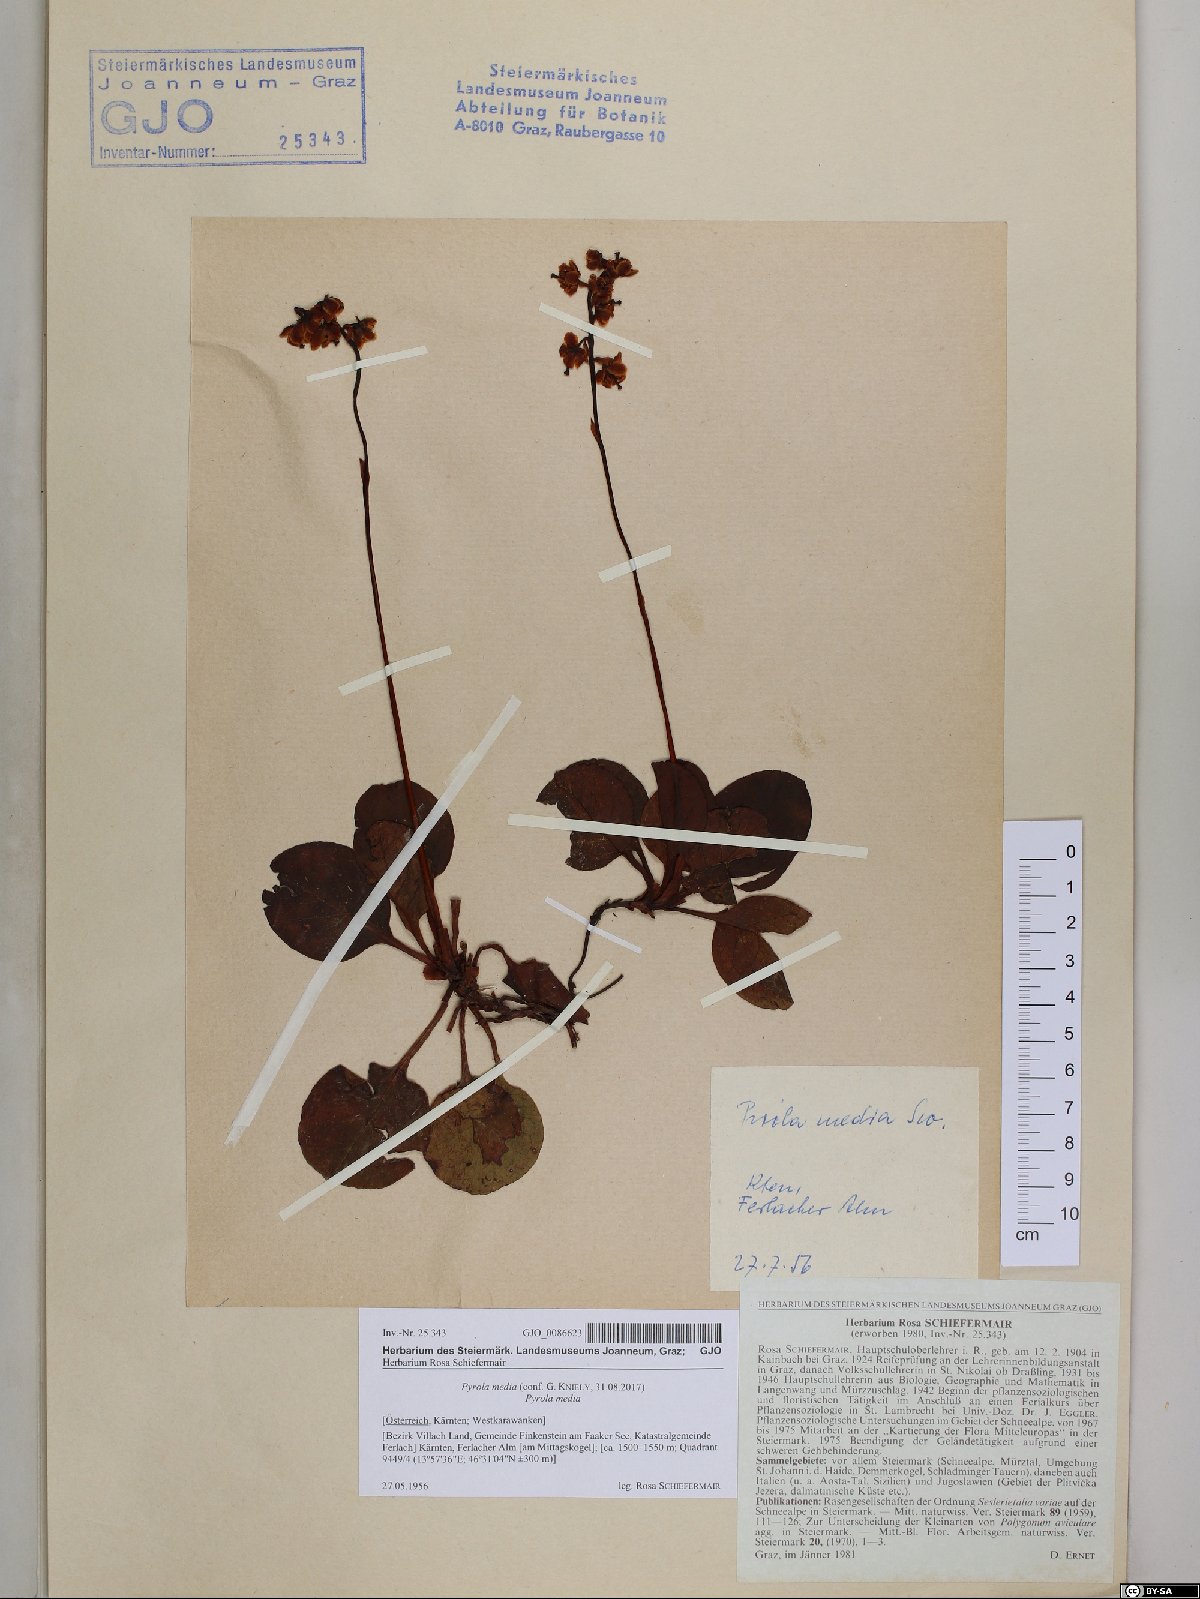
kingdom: Plantae
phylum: Tracheophyta
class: Magnoliopsida
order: Ericales
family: Ericaceae
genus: Pyrola
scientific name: Pyrola media
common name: Intermediate wintergreen
